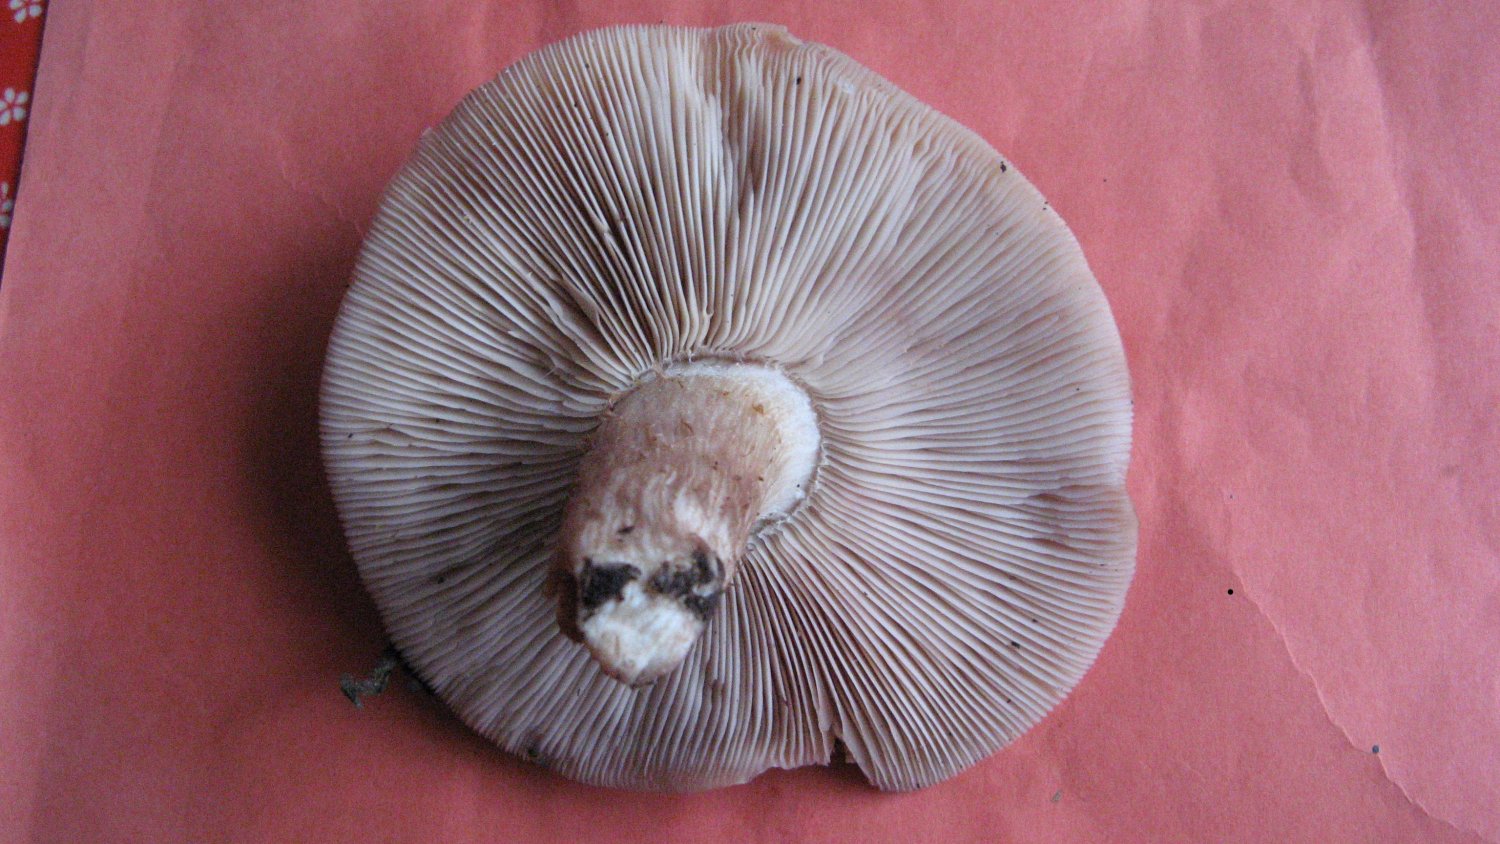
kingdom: Fungi
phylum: Basidiomycota
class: Agaricomycetes
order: Agaricales
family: Tricholomataceae
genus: Lepista
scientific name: Lepista personata
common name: bleg hekseringshat
